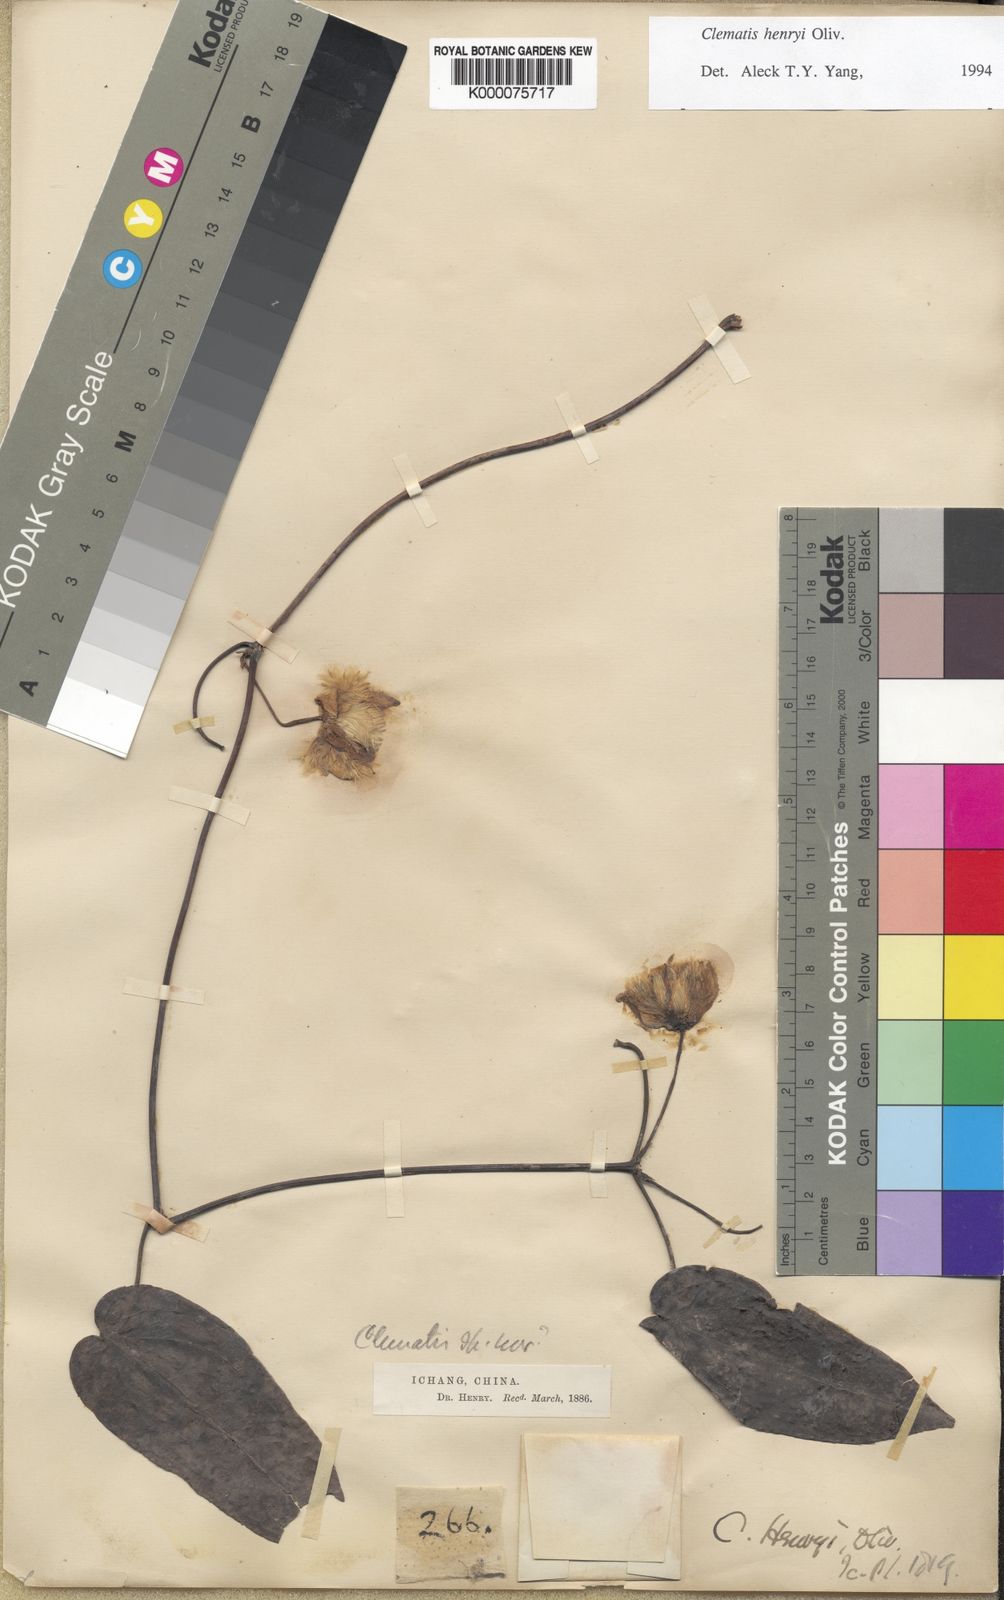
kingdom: Plantae
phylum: Tracheophyta
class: Magnoliopsida
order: Ranunculales
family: Ranunculaceae
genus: Clematis
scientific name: Clematis hayatae
